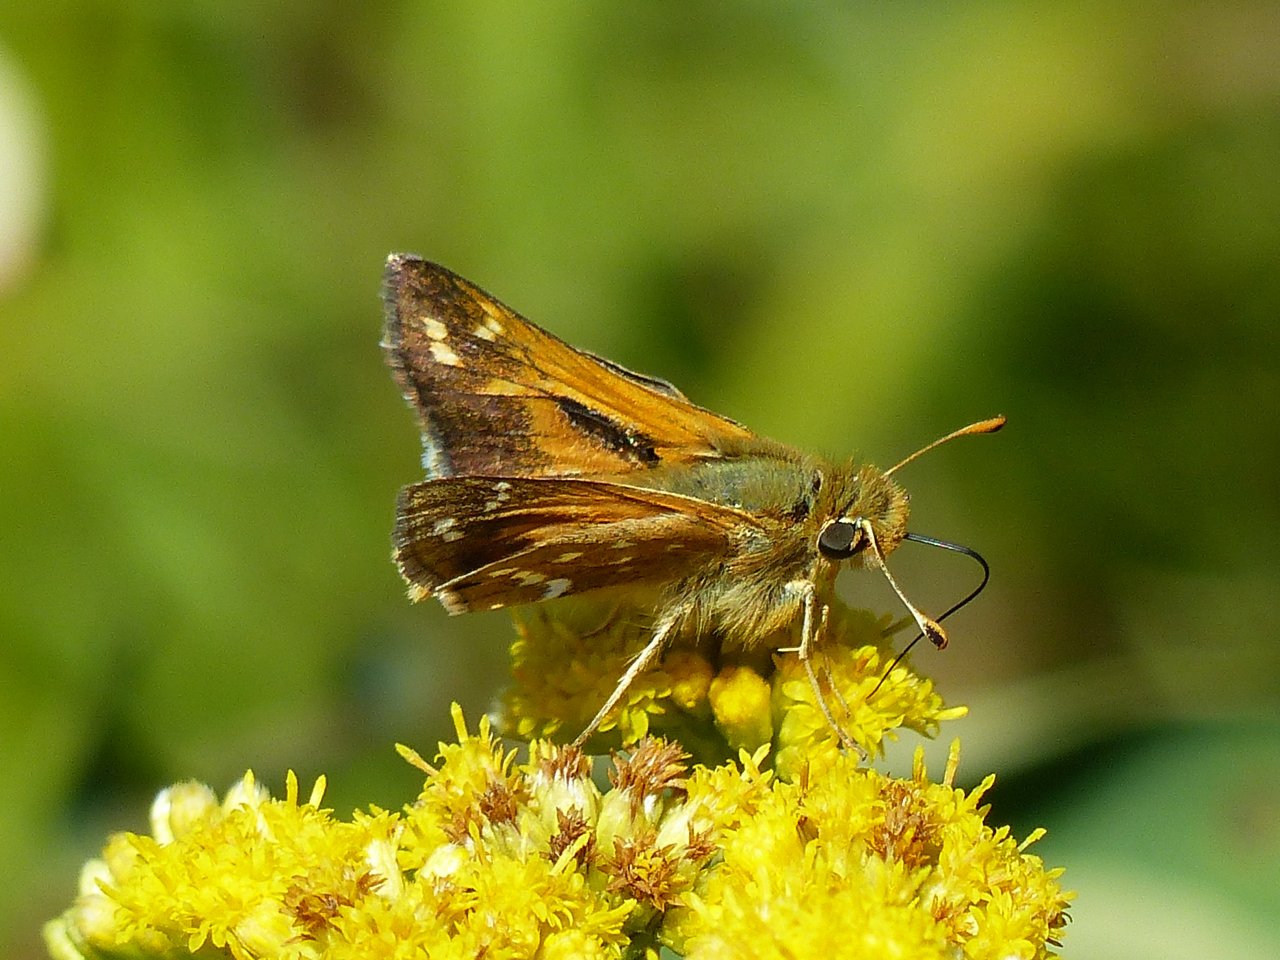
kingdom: Animalia
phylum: Arthropoda
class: Insecta
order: Lepidoptera
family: Hesperiidae
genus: Hesperia
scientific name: Hesperia comma
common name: Common Branded Skipper
